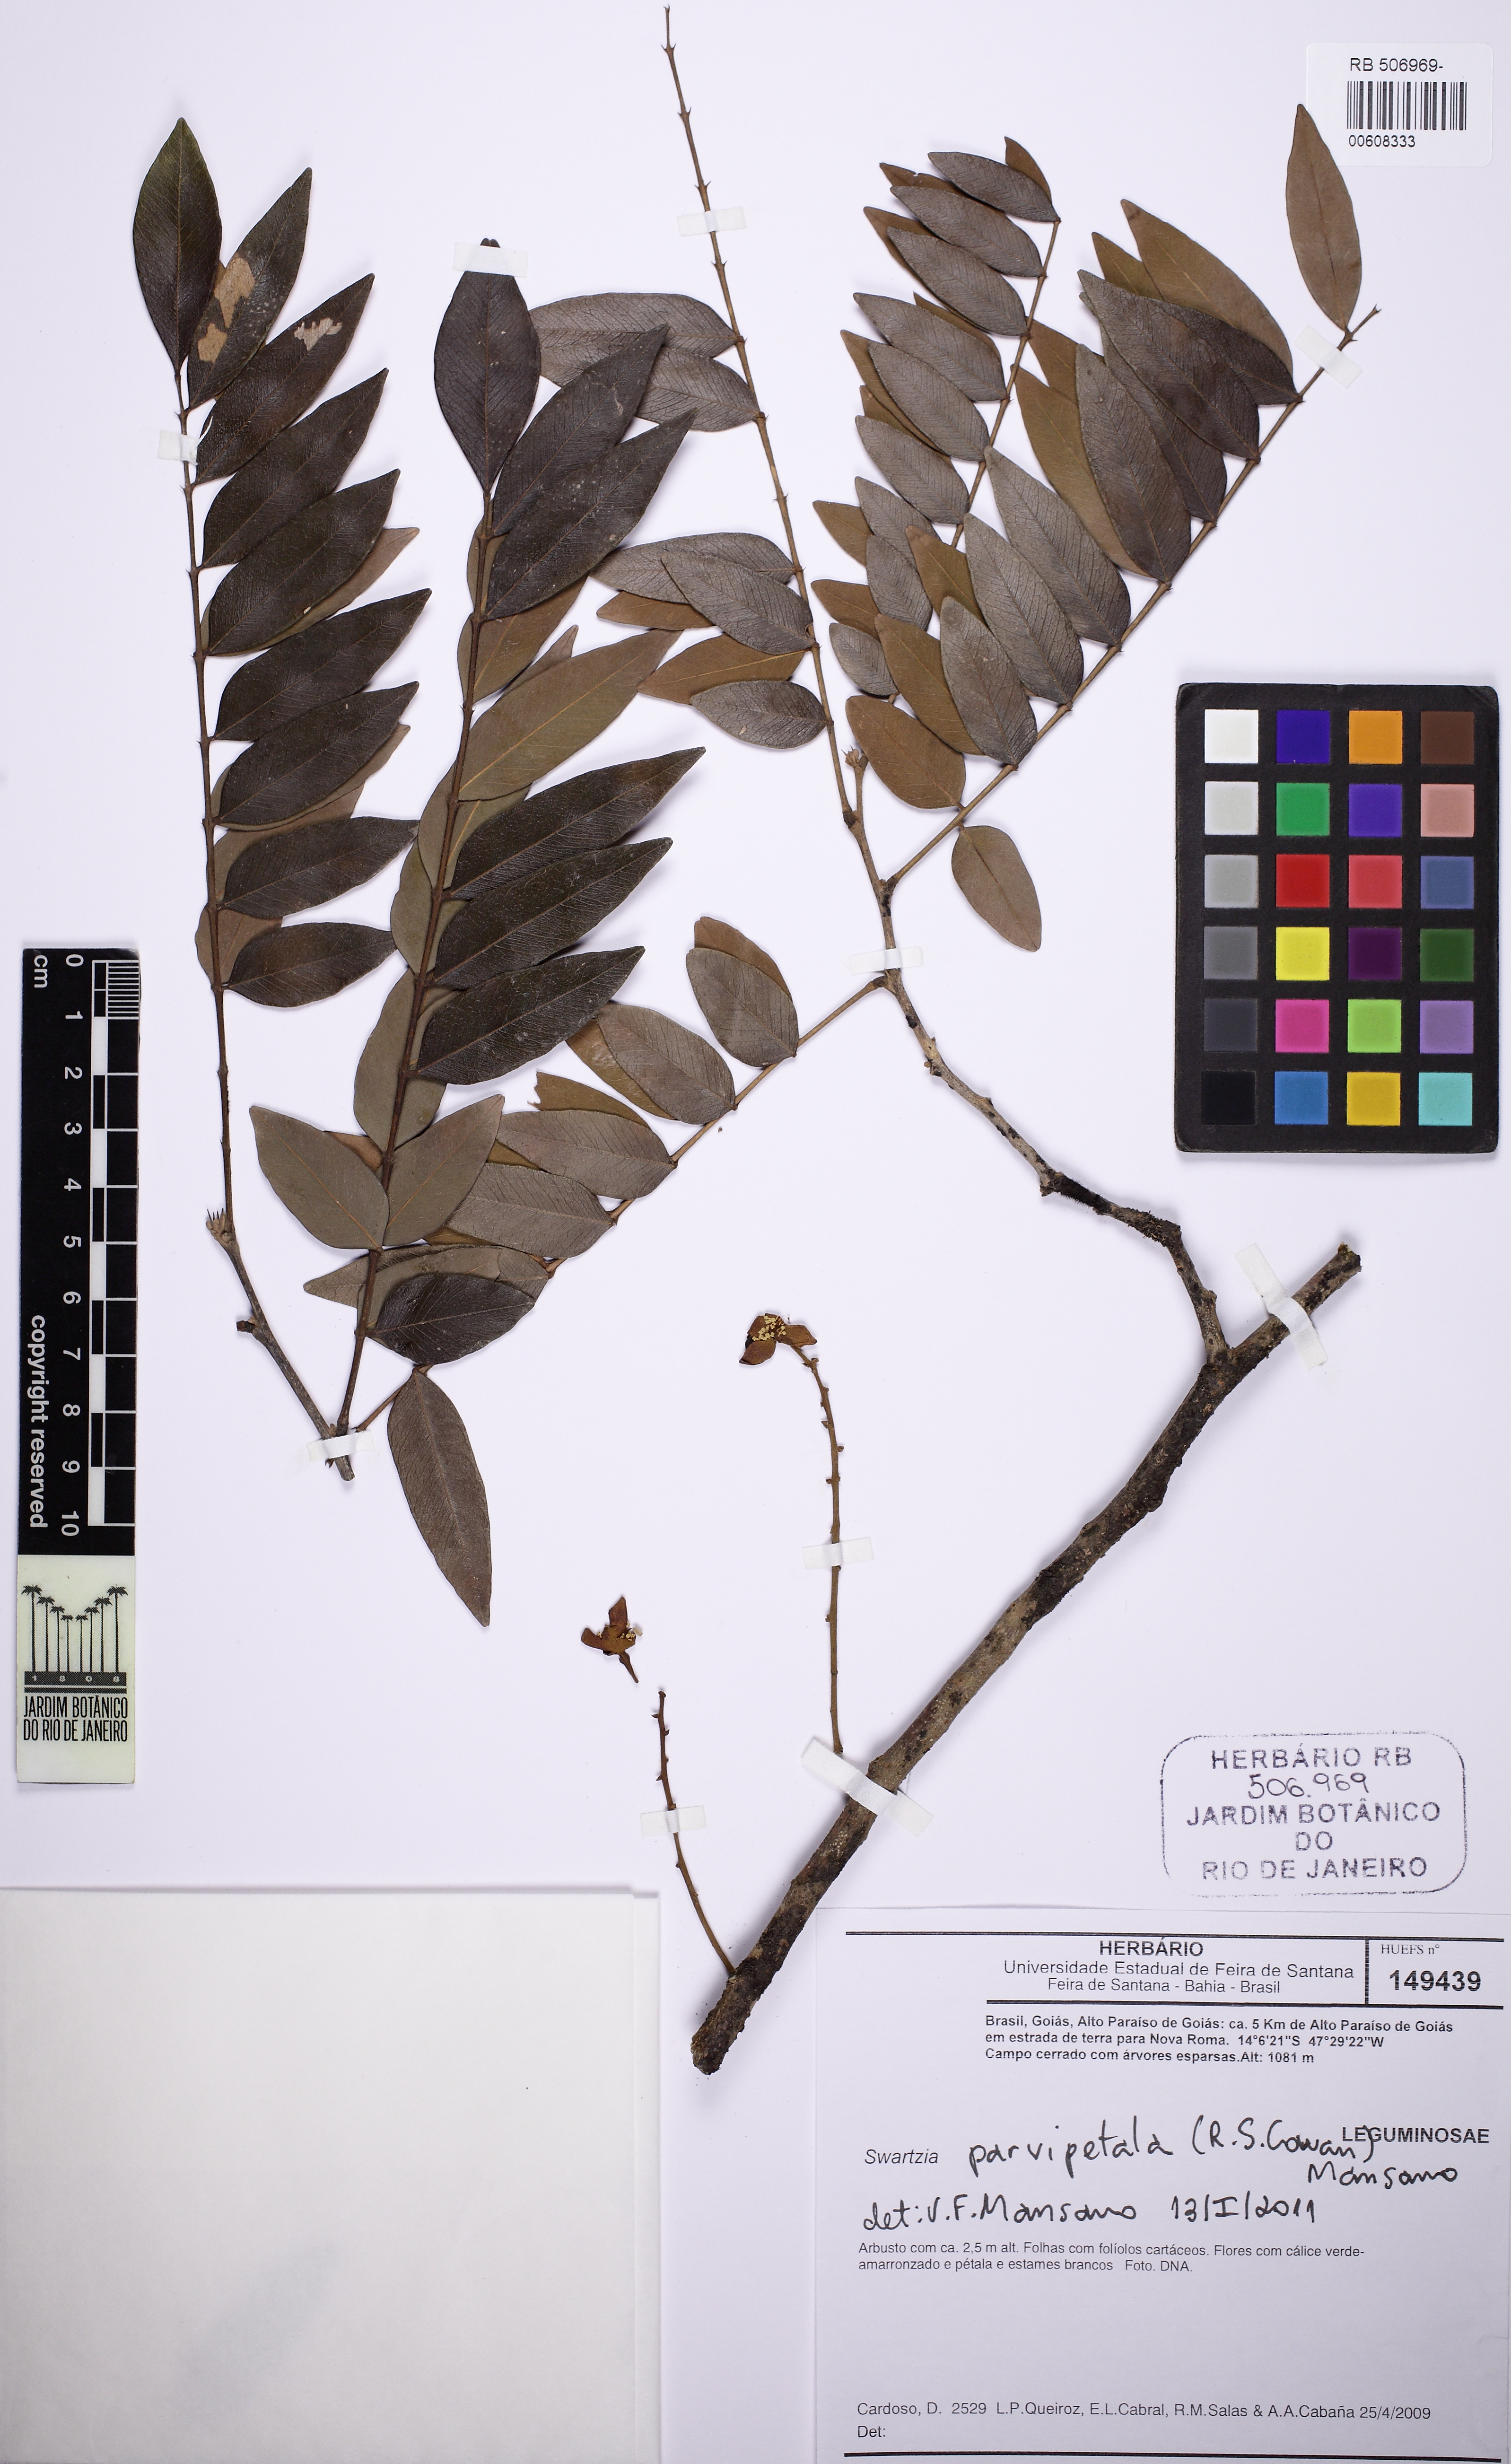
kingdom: Plantae
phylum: Tracheophyta
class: Magnoliopsida
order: Fabales
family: Fabaceae
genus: Swartzia
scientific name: Swartzia parvipetala
